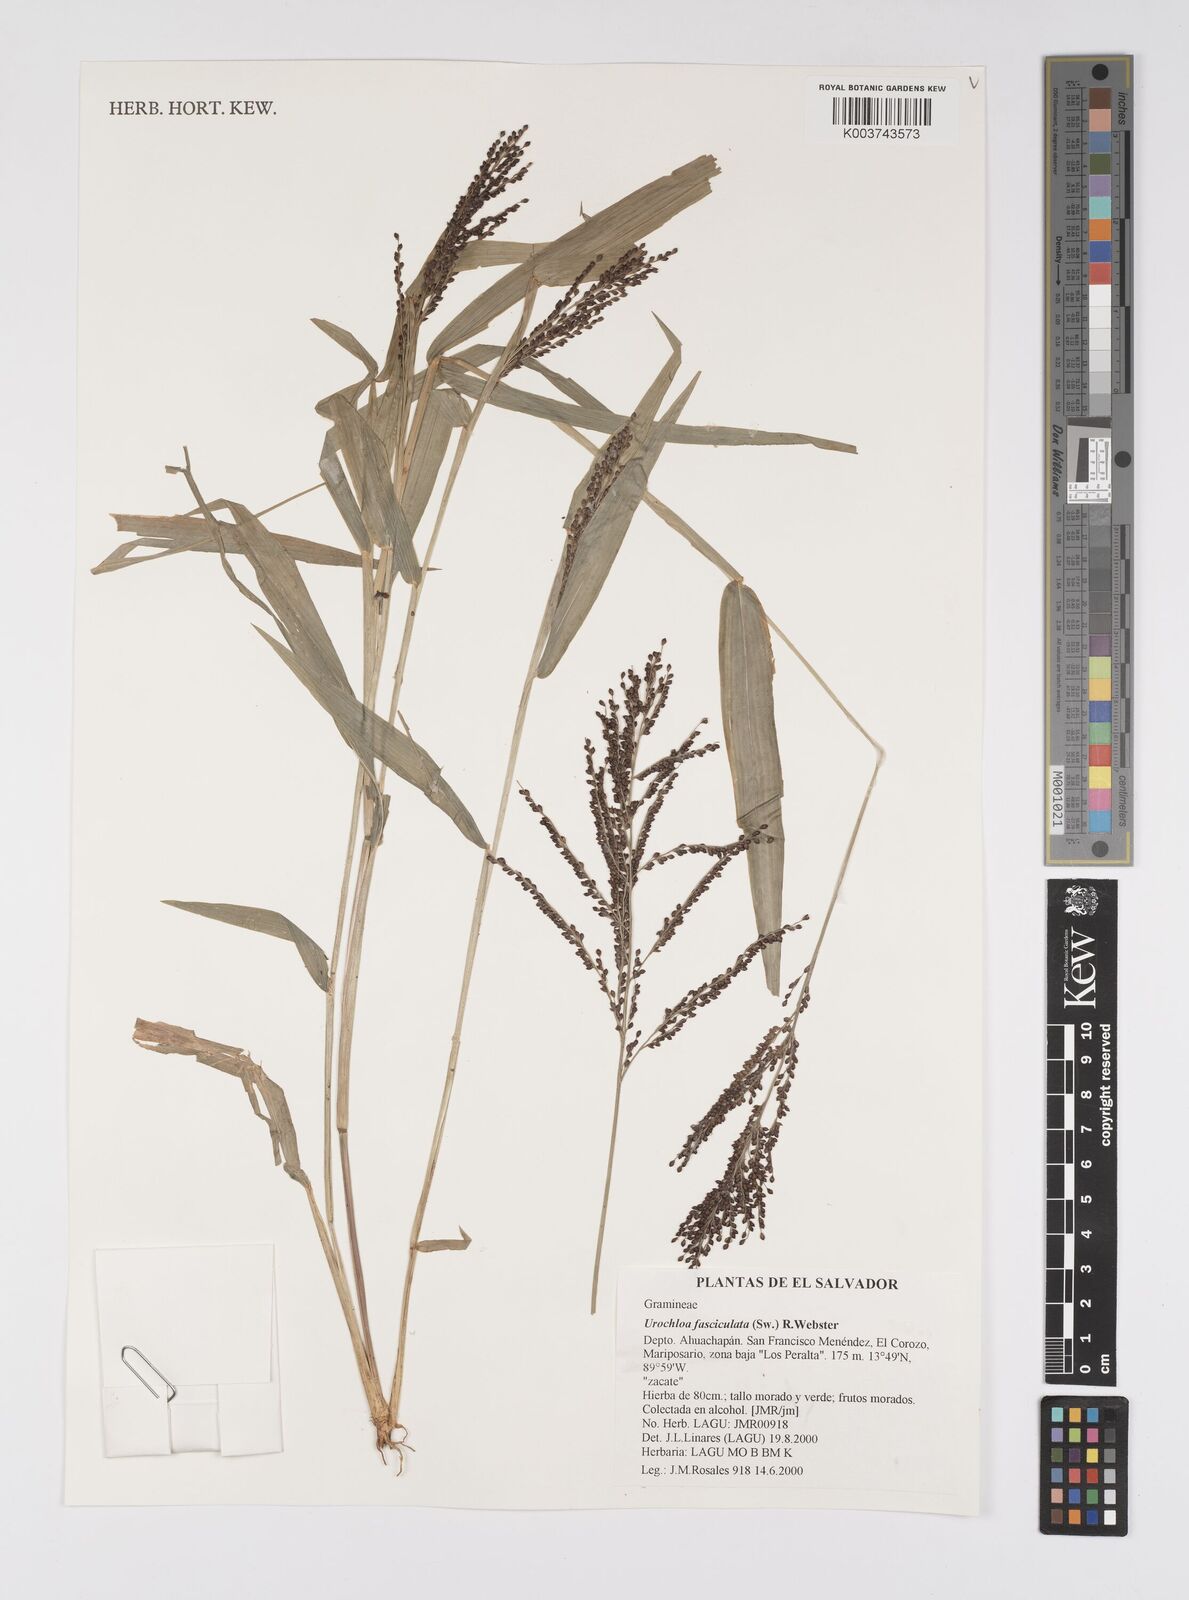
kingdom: Plantae
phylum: Tracheophyta
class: Liliopsida
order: Poales
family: Poaceae
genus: Urochloa
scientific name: Urochloa fusca
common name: Browntop signal grass
